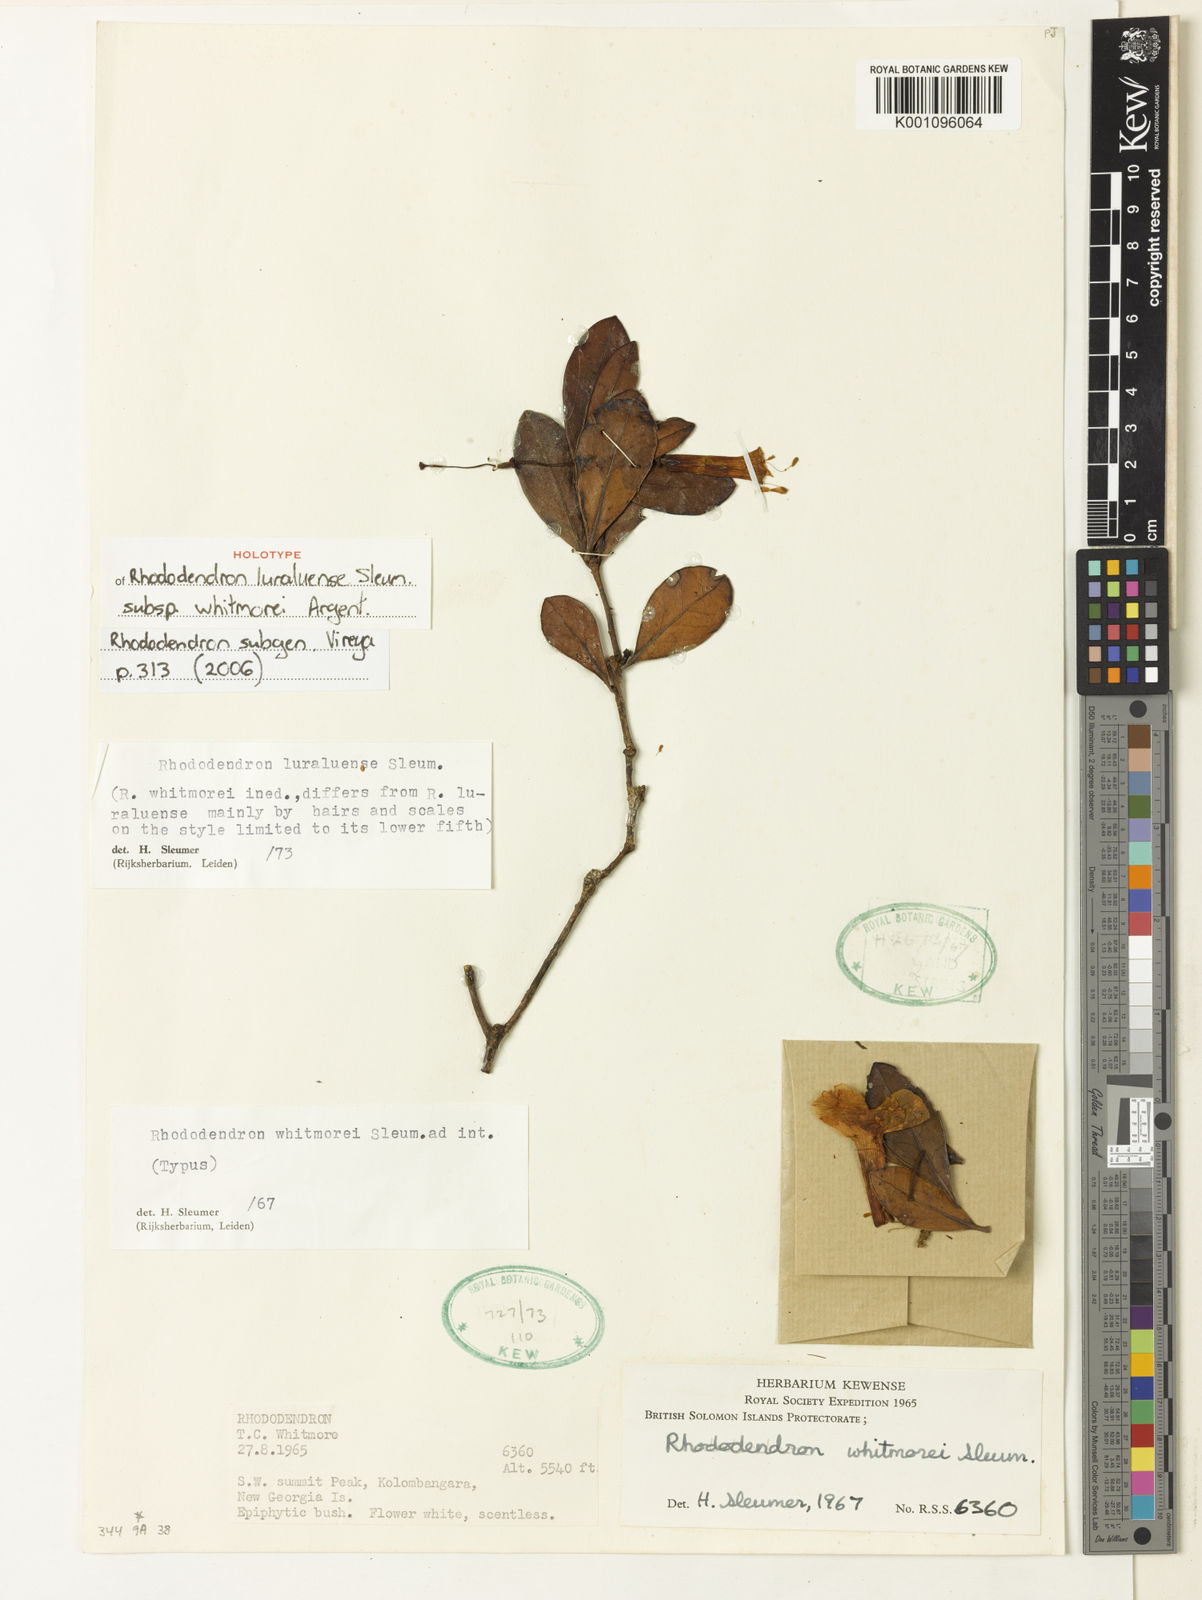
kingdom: Plantae
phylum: Tracheophyta
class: Magnoliopsida
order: Ericales
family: Ericaceae
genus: Rhododendron
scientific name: Rhododendron luraluense
